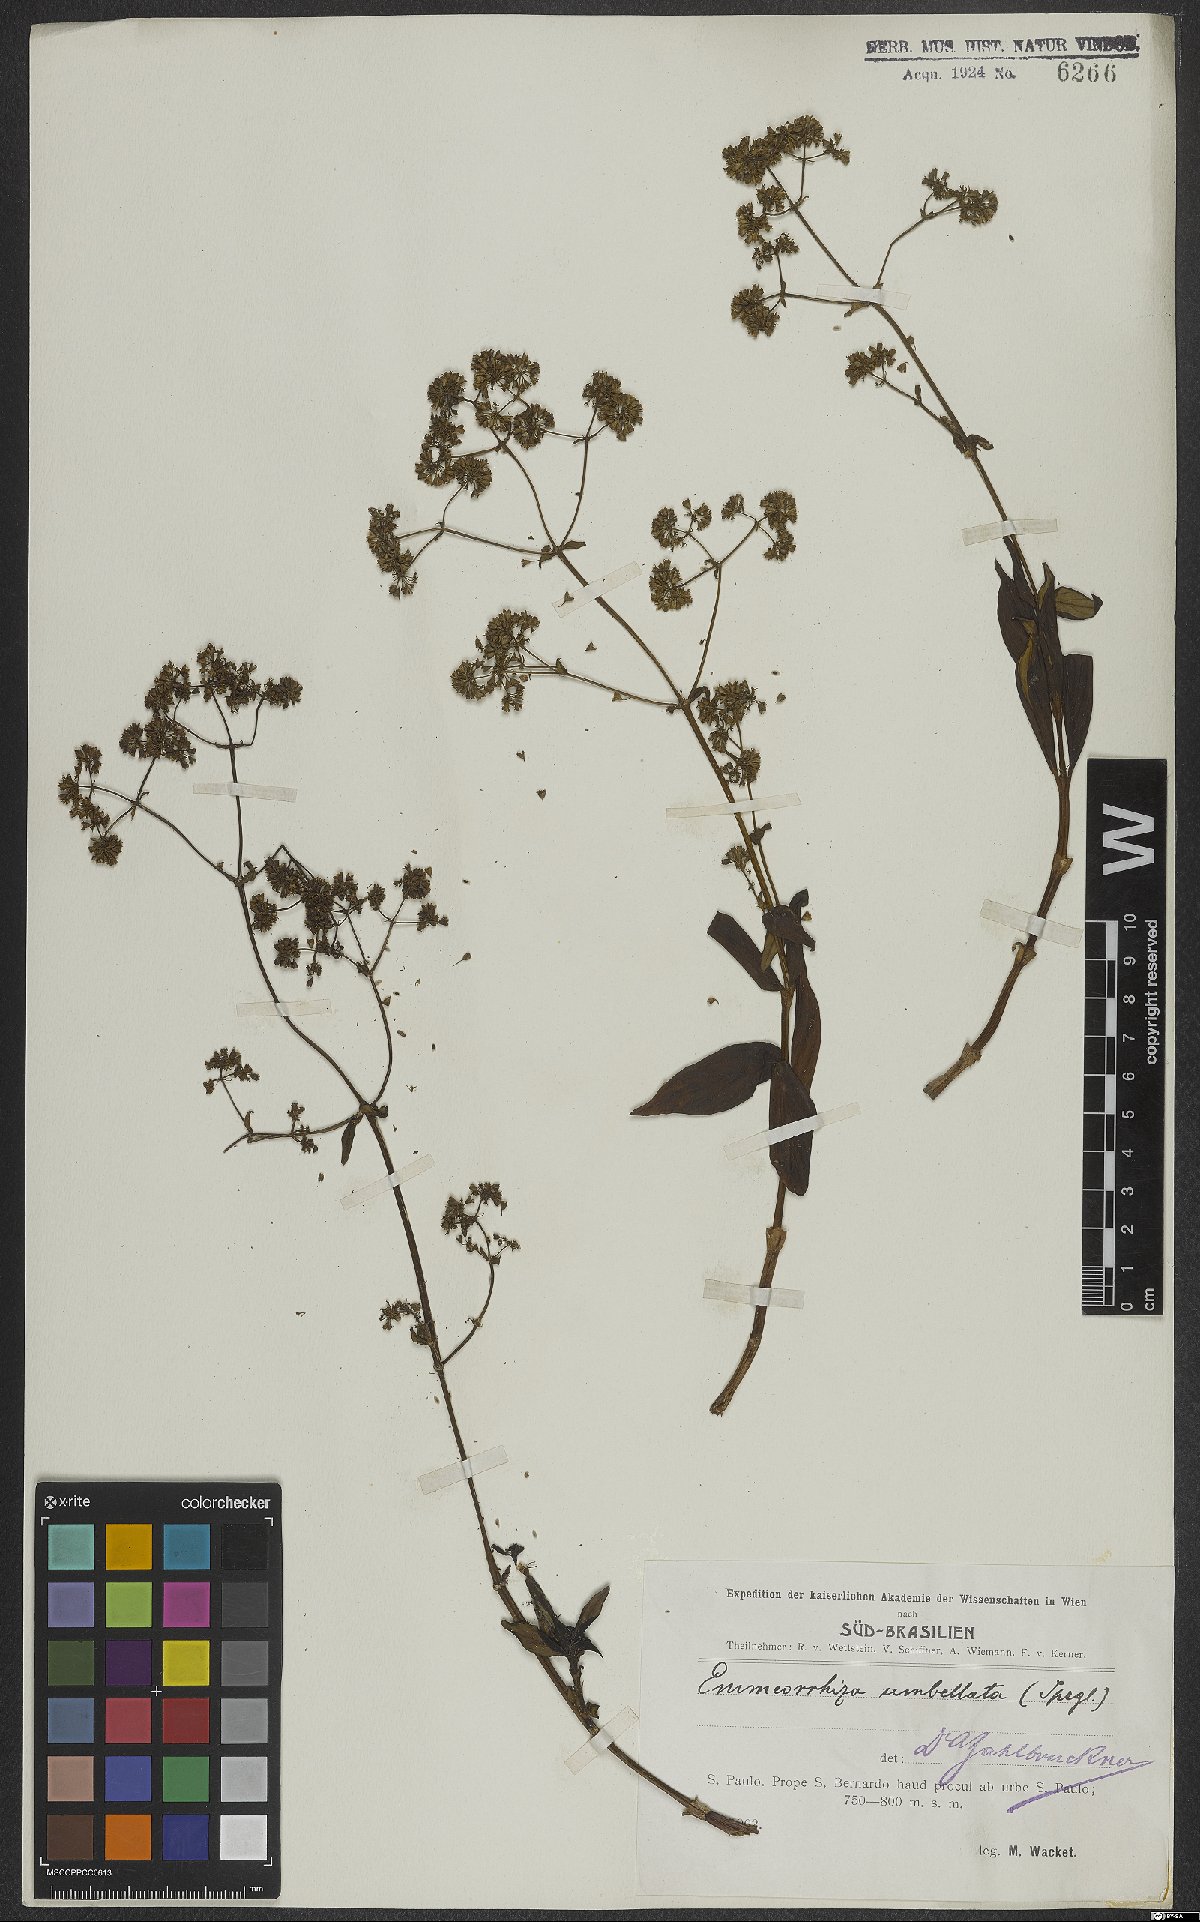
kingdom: Plantae
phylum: Tracheophyta
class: Magnoliopsida
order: Gentianales
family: Rubiaceae
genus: Emmeorhiza
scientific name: Emmeorhiza umbellata
